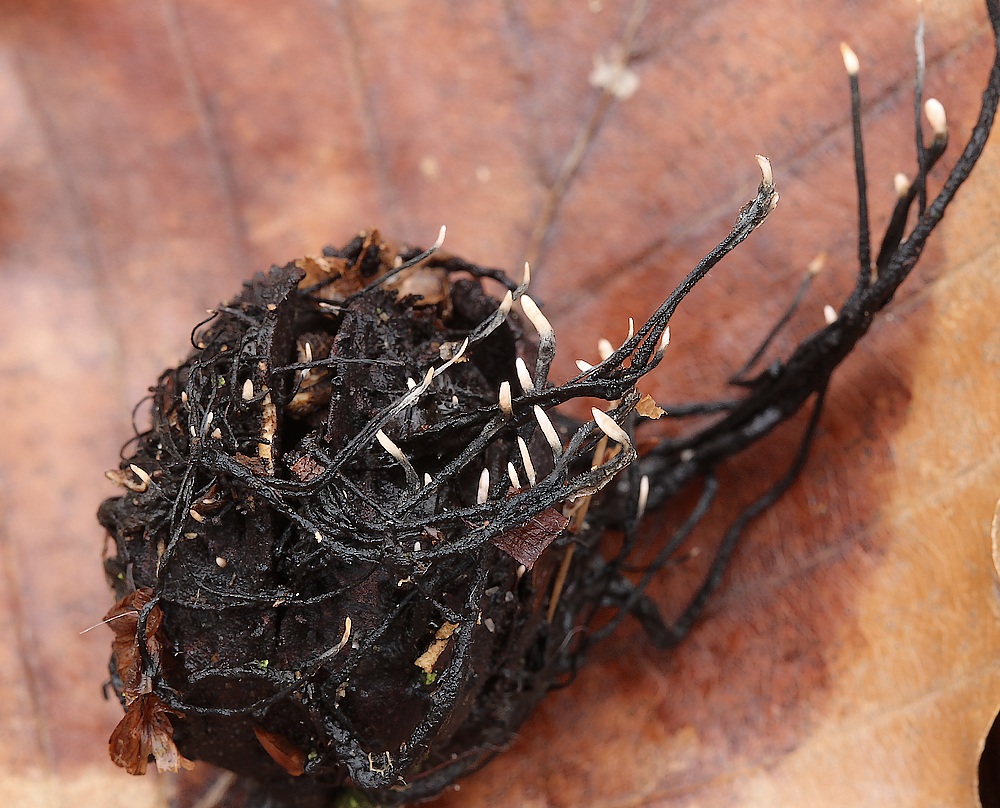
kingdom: Fungi
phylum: Ascomycota
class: Sordariomycetes
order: Xylariales
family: Xylariaceae
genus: Xylaria
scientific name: Xylaria carpophila
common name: bogskål-stødsvamp
